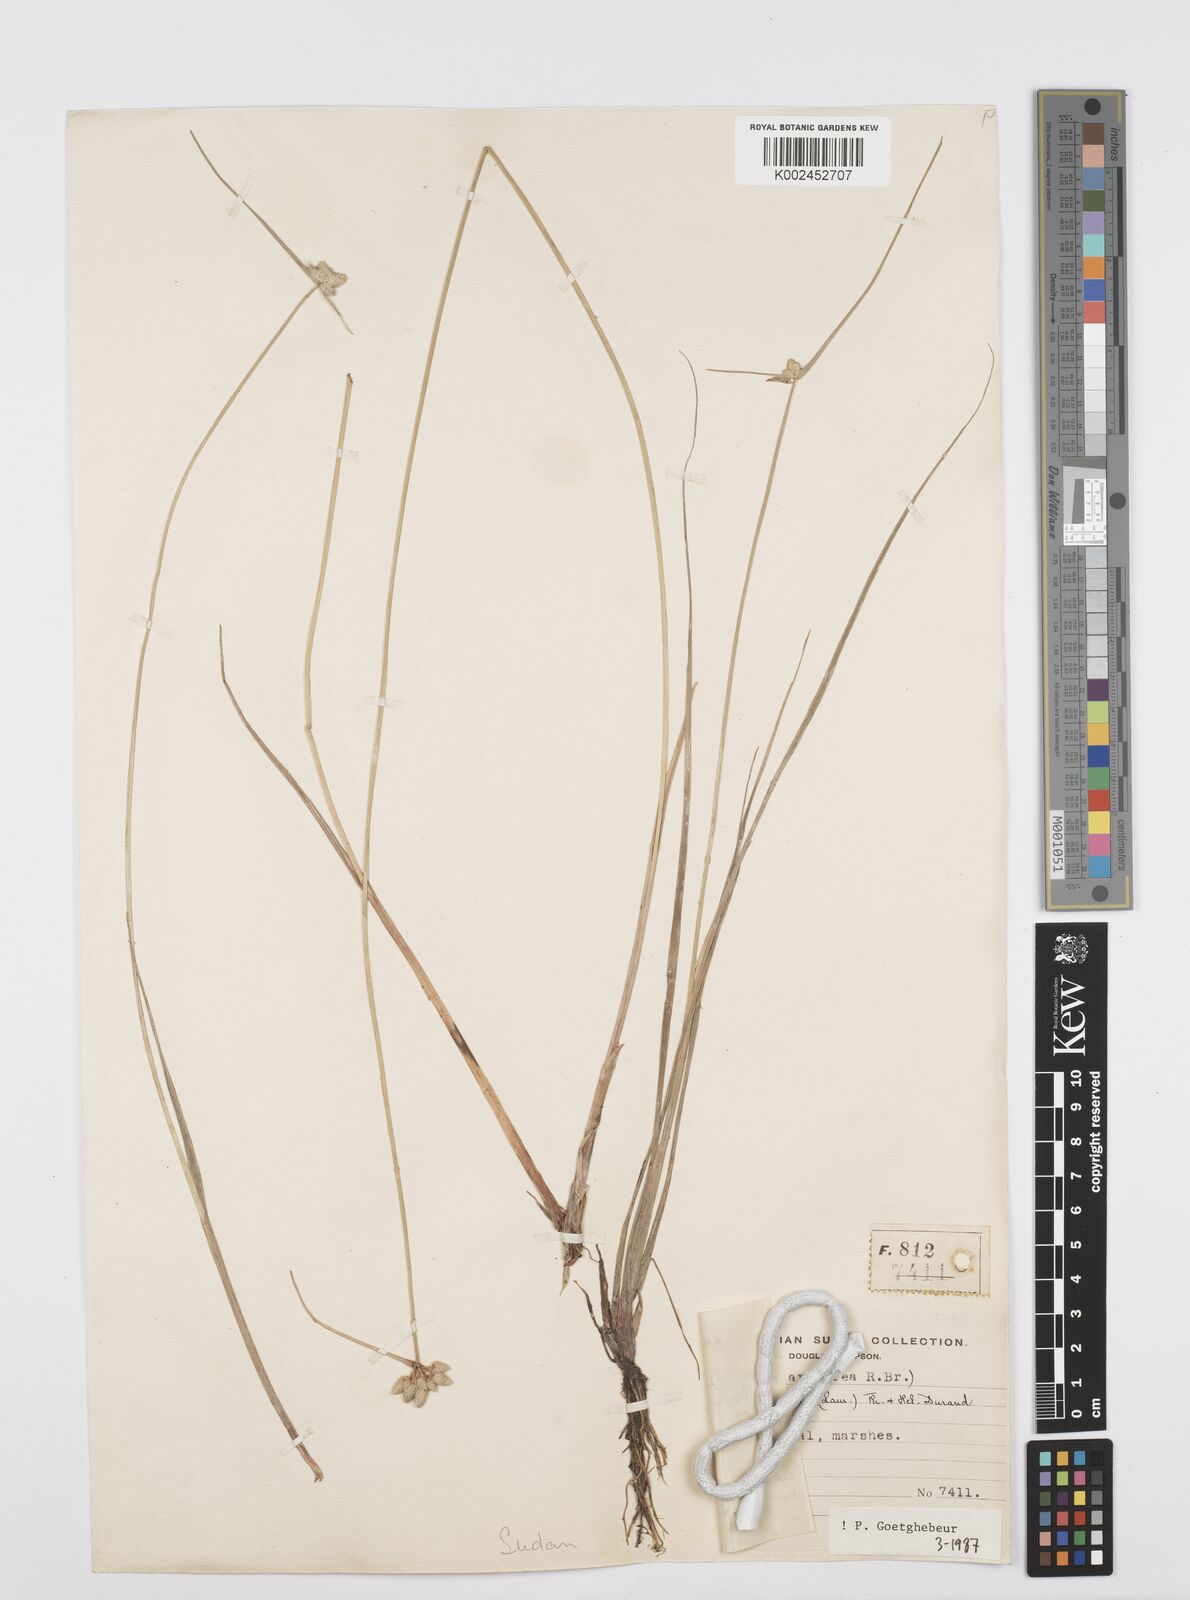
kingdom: Plantae
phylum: Tracheophyta
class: Liliopsida
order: Poales
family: Cyperaceae
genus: Cyperus
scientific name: Cyperus albescens
